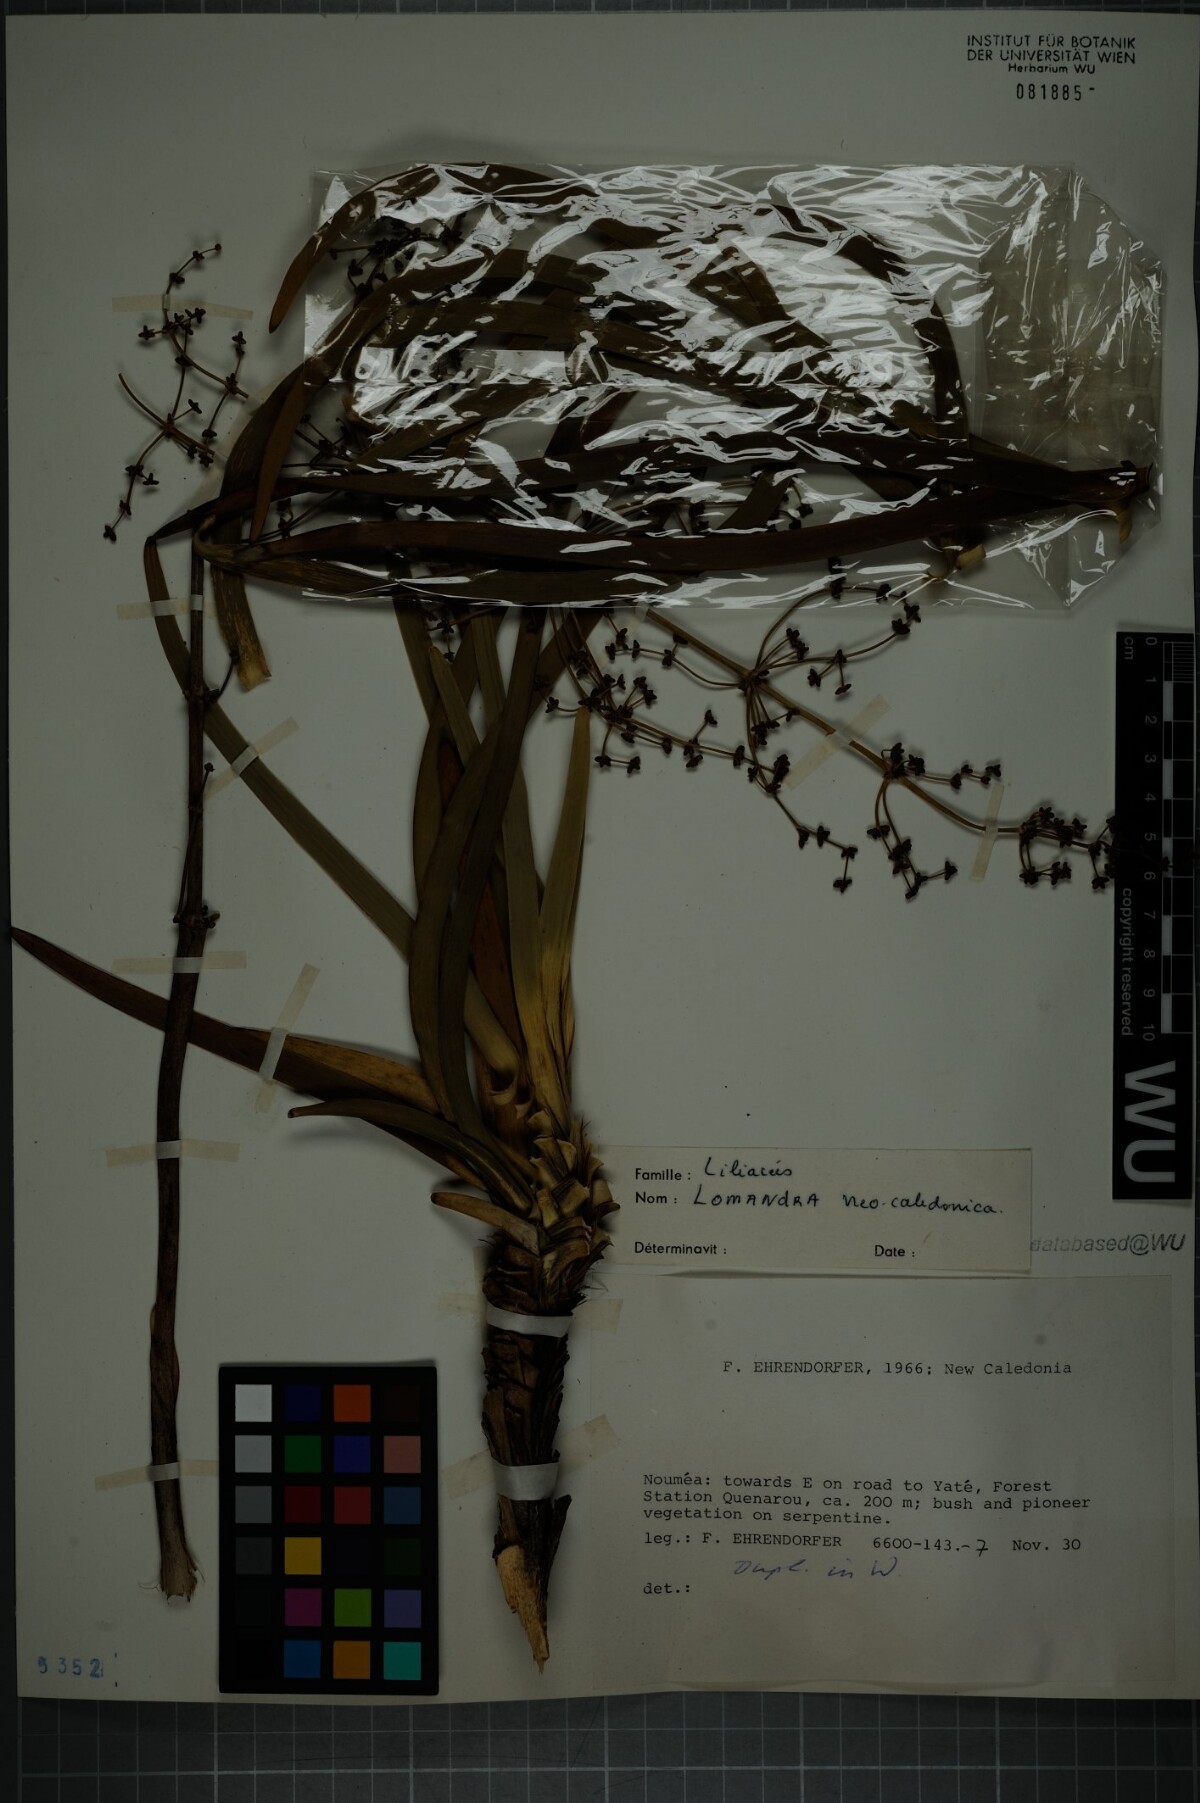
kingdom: Plantae
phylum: Tracheophyta
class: Liliopsida
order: Asparagales
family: Asparagaceae
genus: Lomandra
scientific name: Lomandra
